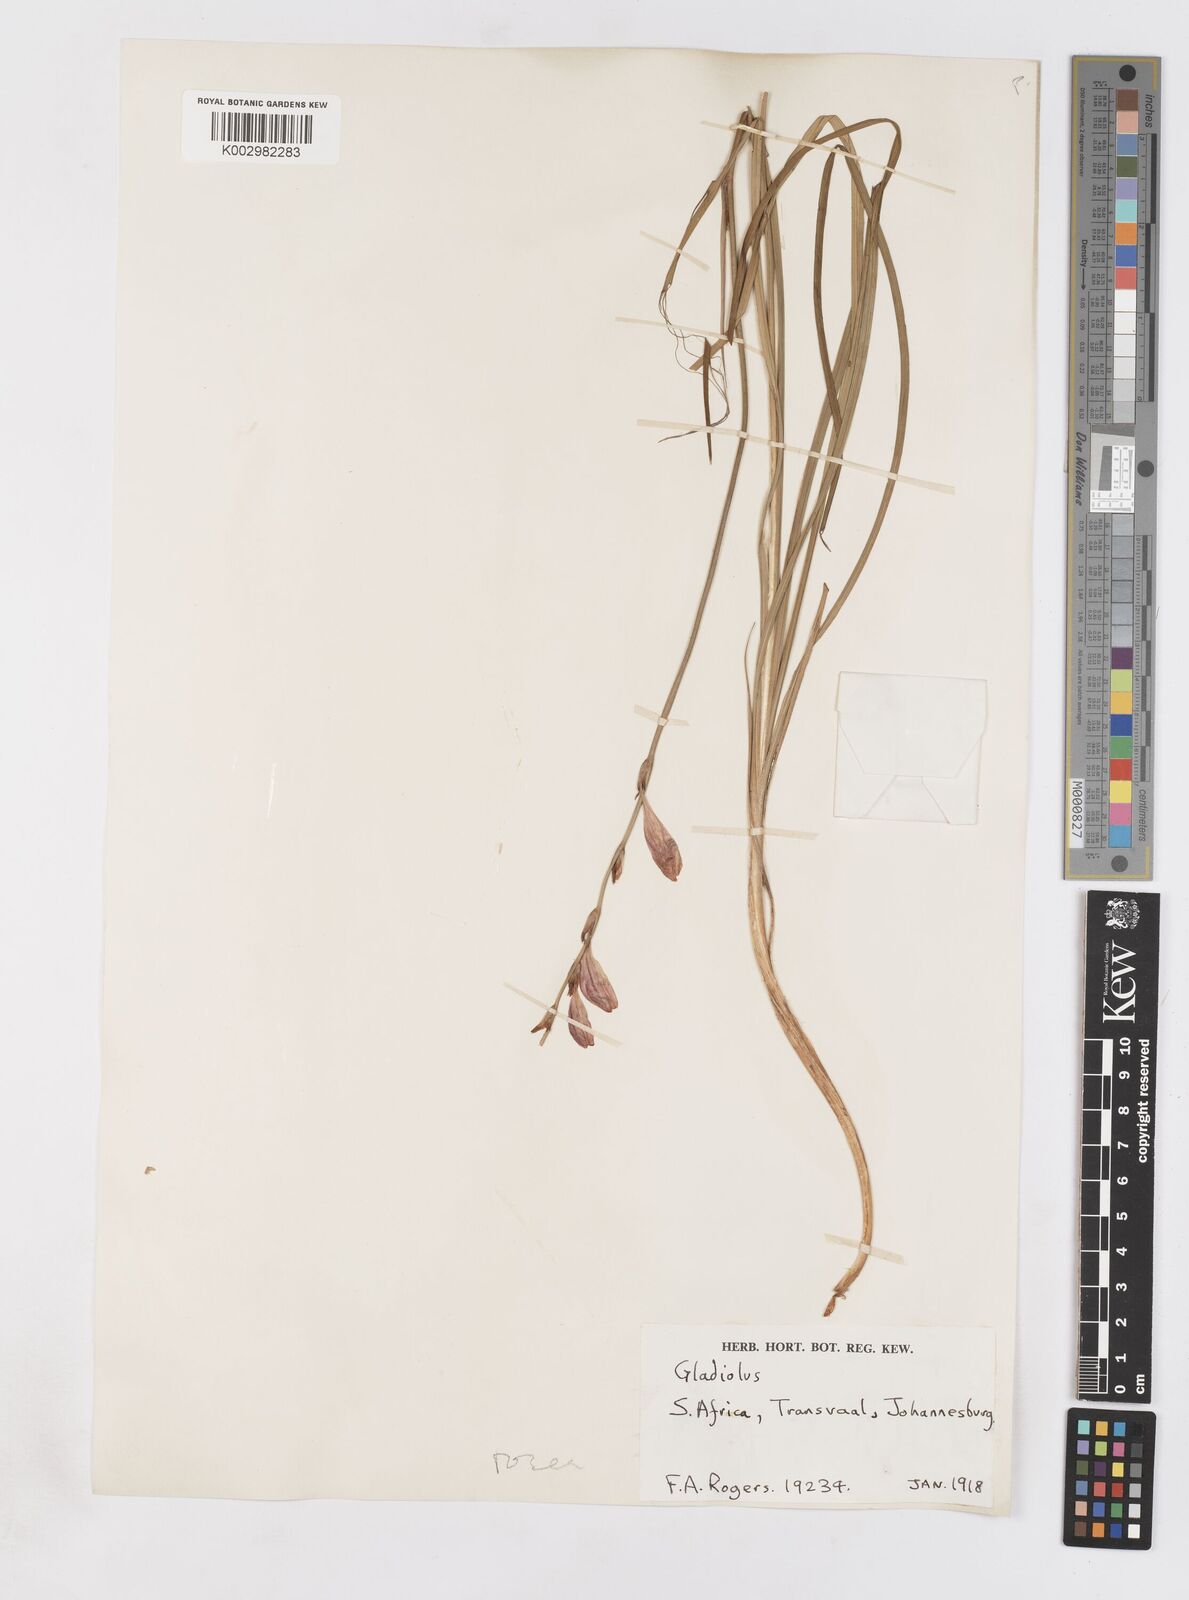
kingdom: Plantae
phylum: Tracheophyta
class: Liliopsida
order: Asparagales
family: Iridaceae
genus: Tritonia
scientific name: Tritonia disticha
